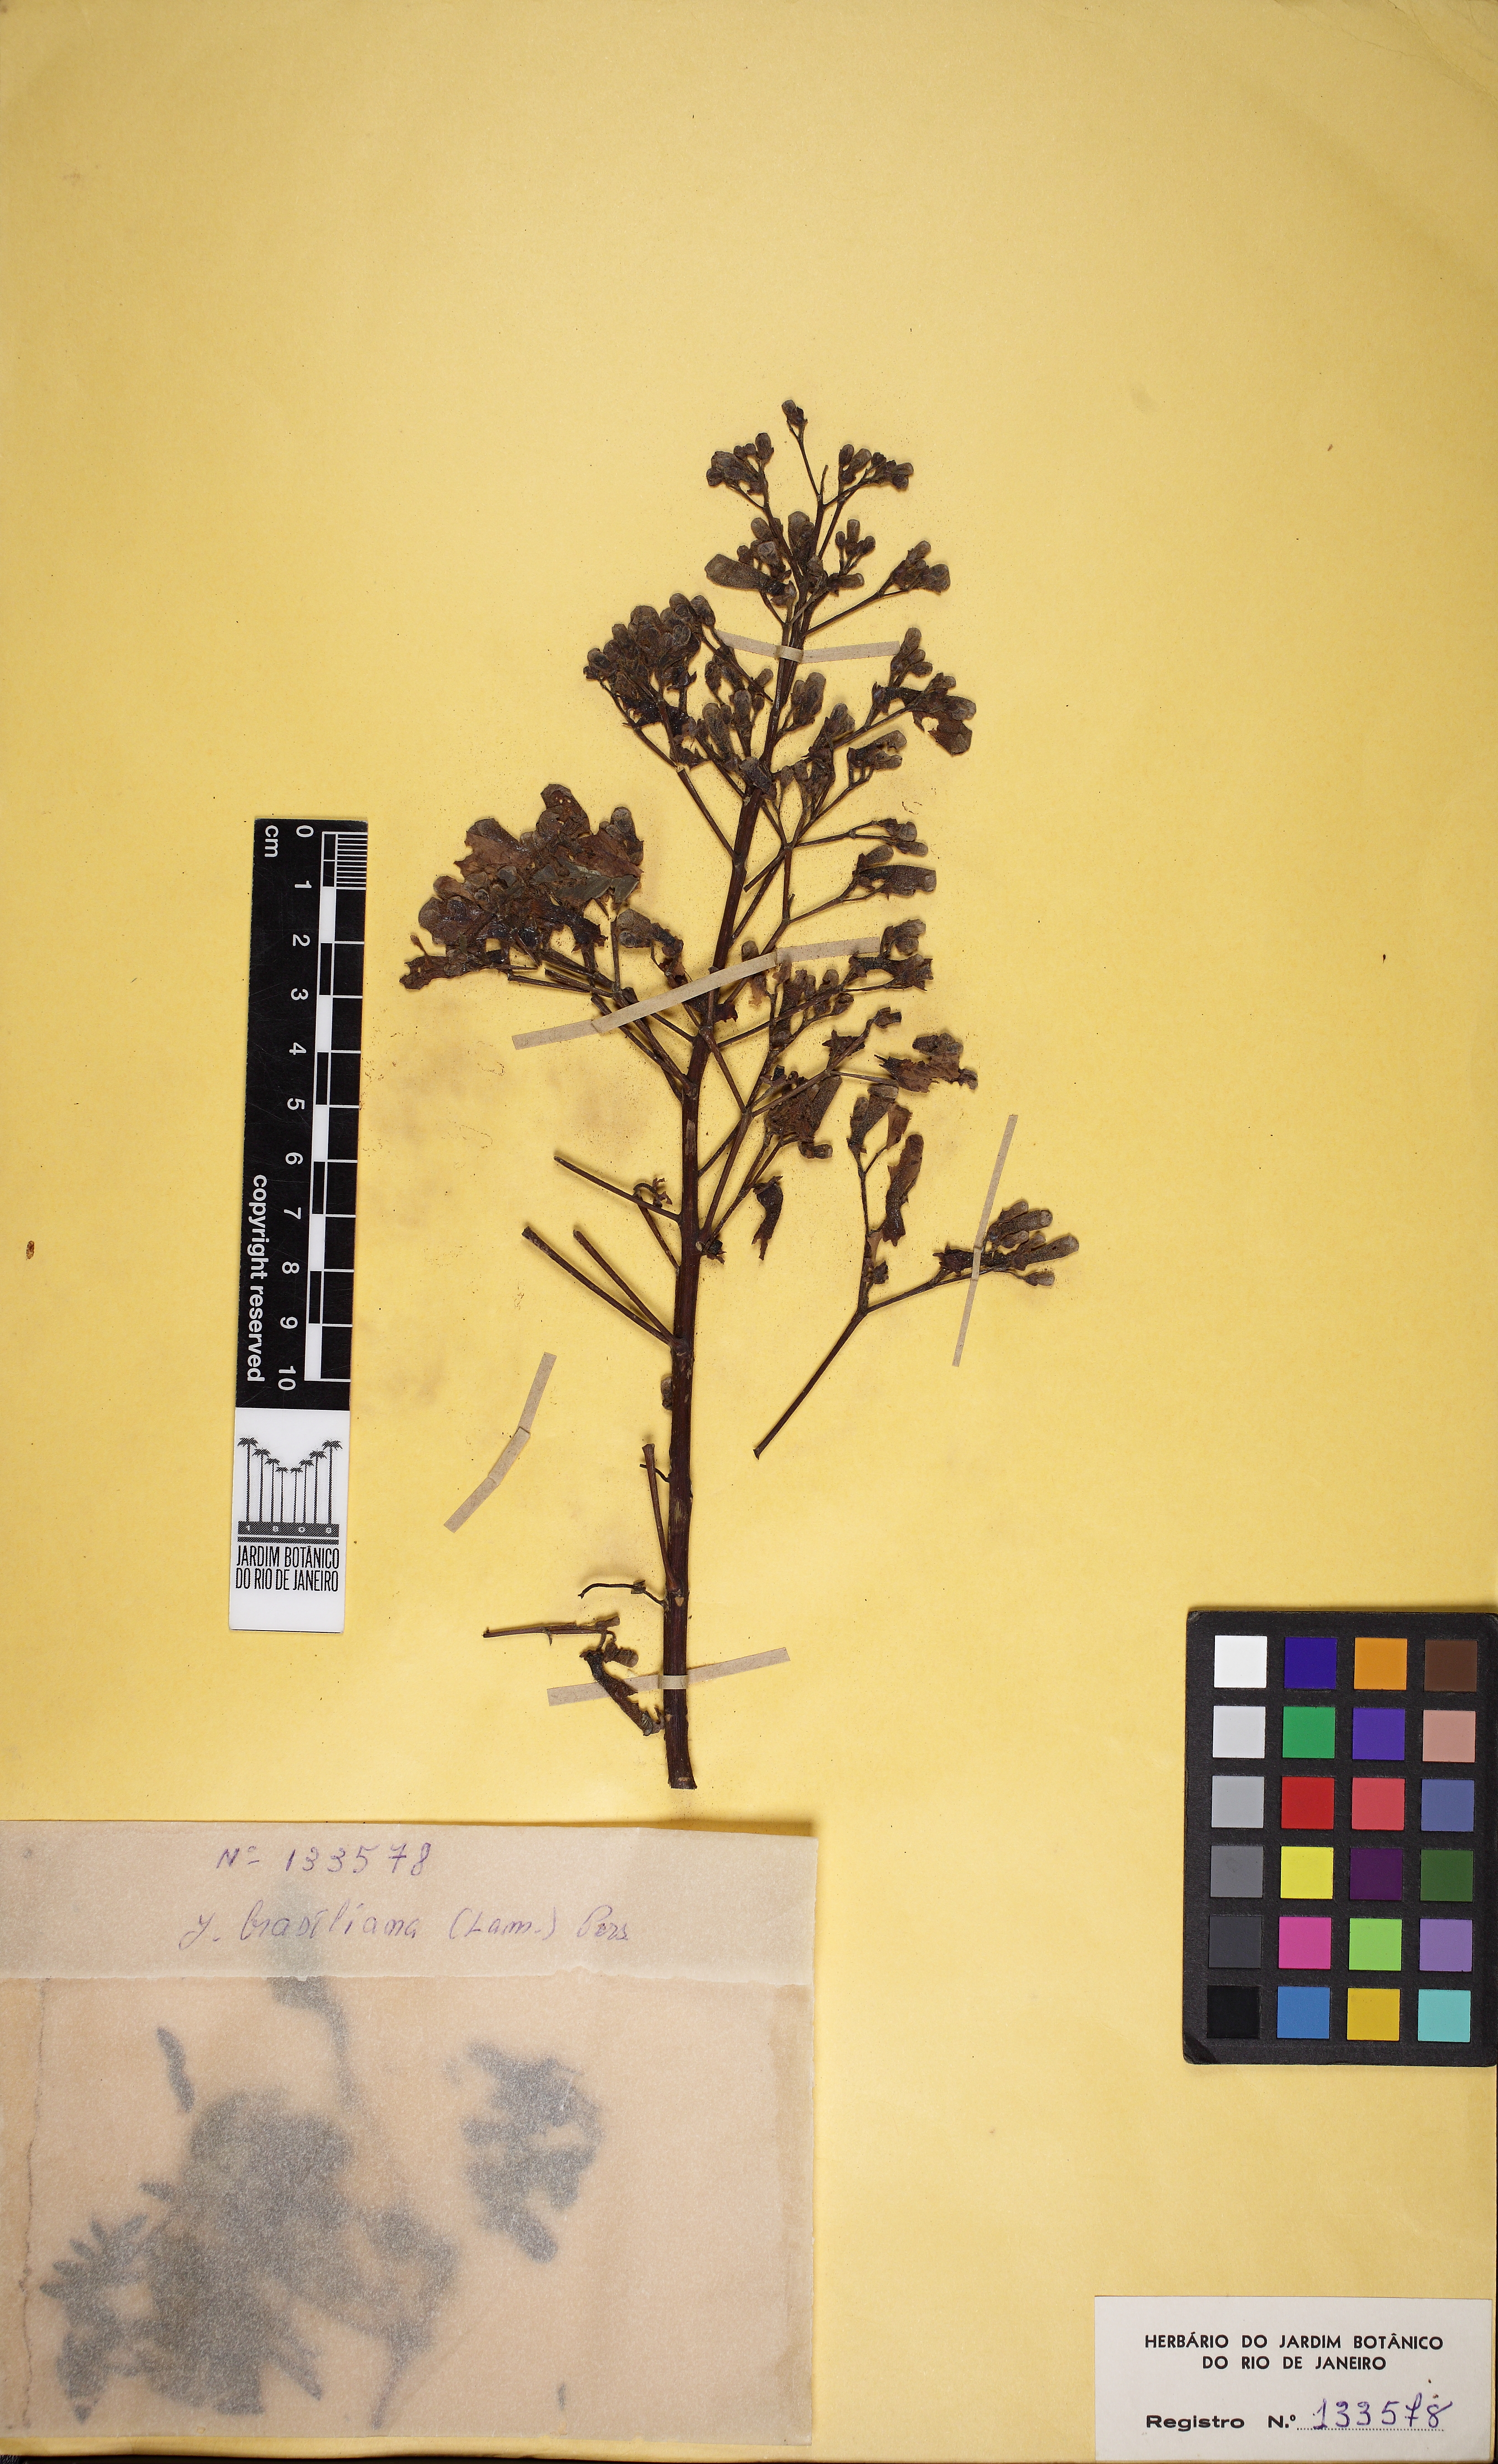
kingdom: Plantae
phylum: Tracheophyta
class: Magnoliopsida
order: Lamiales
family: Bignoniaceae
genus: Jacaranda
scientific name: Jacaranda brasiliana
